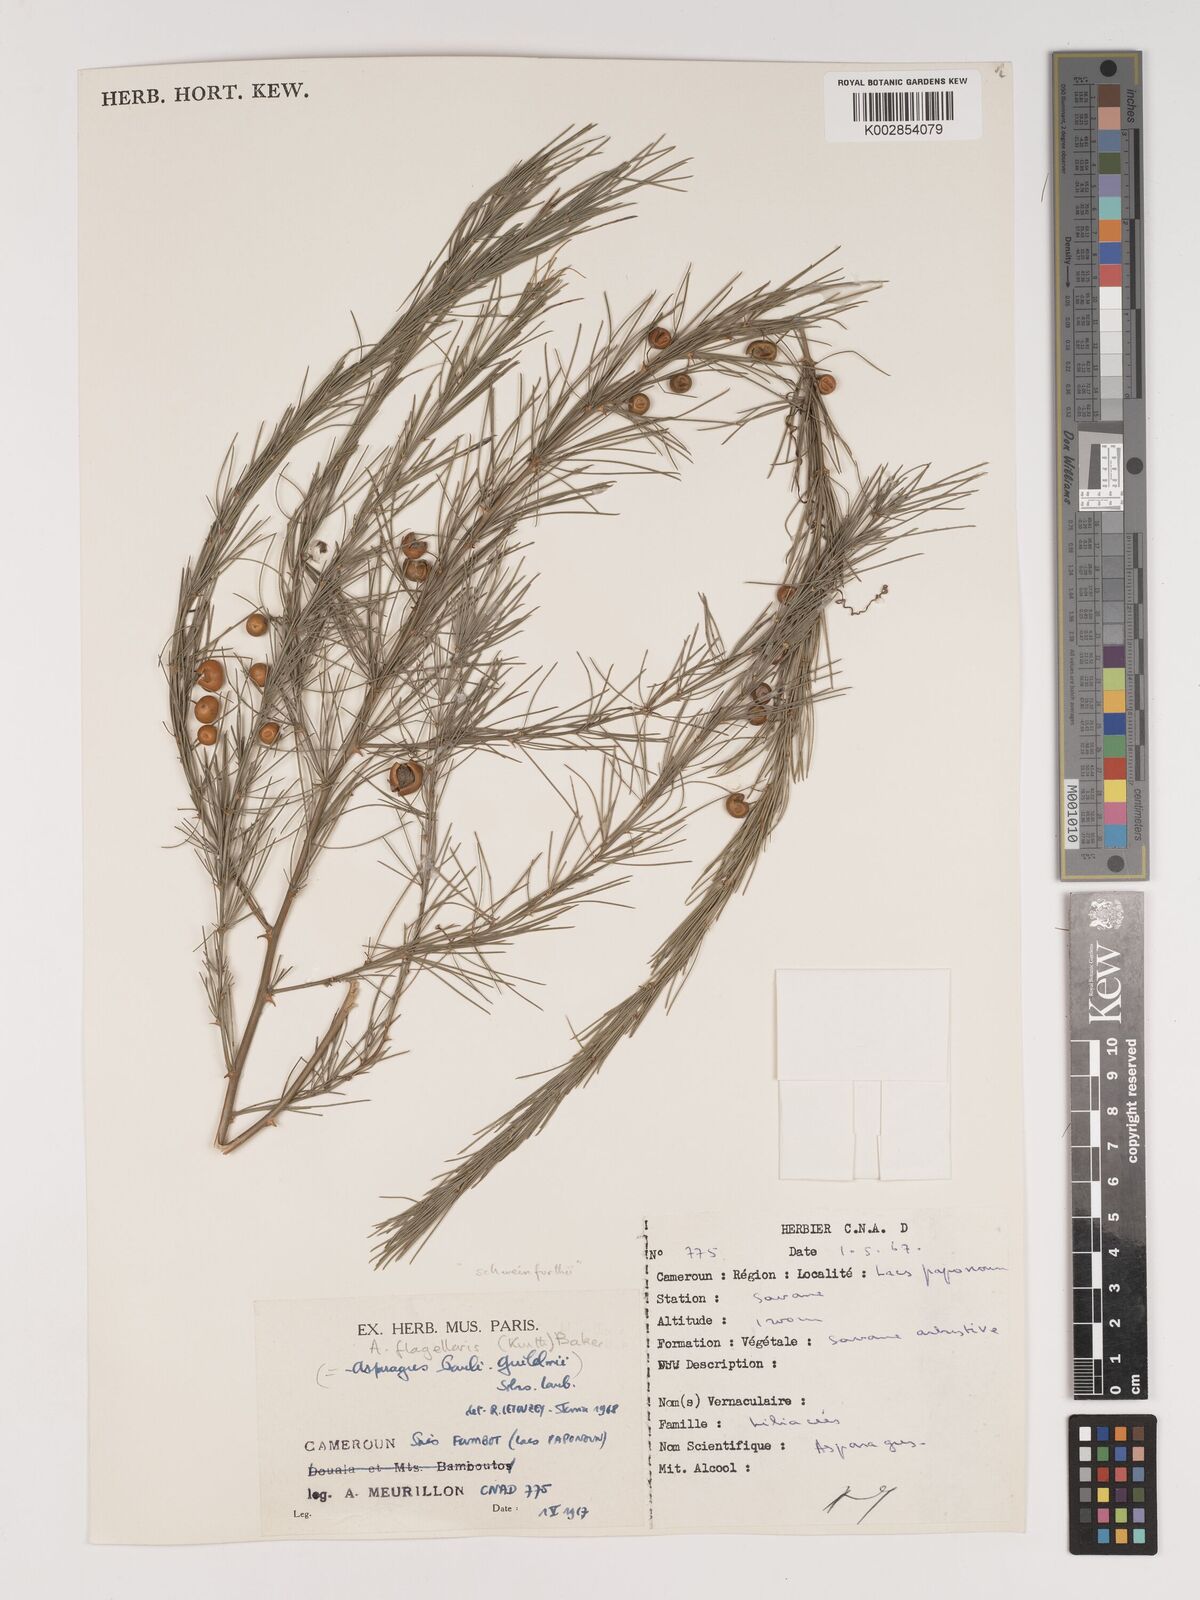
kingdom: Plantae
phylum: Tracheophyta
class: Liliopsida
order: Asparagales
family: Asparagaceae
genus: Asparagus
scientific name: Asparagus flagellaris
